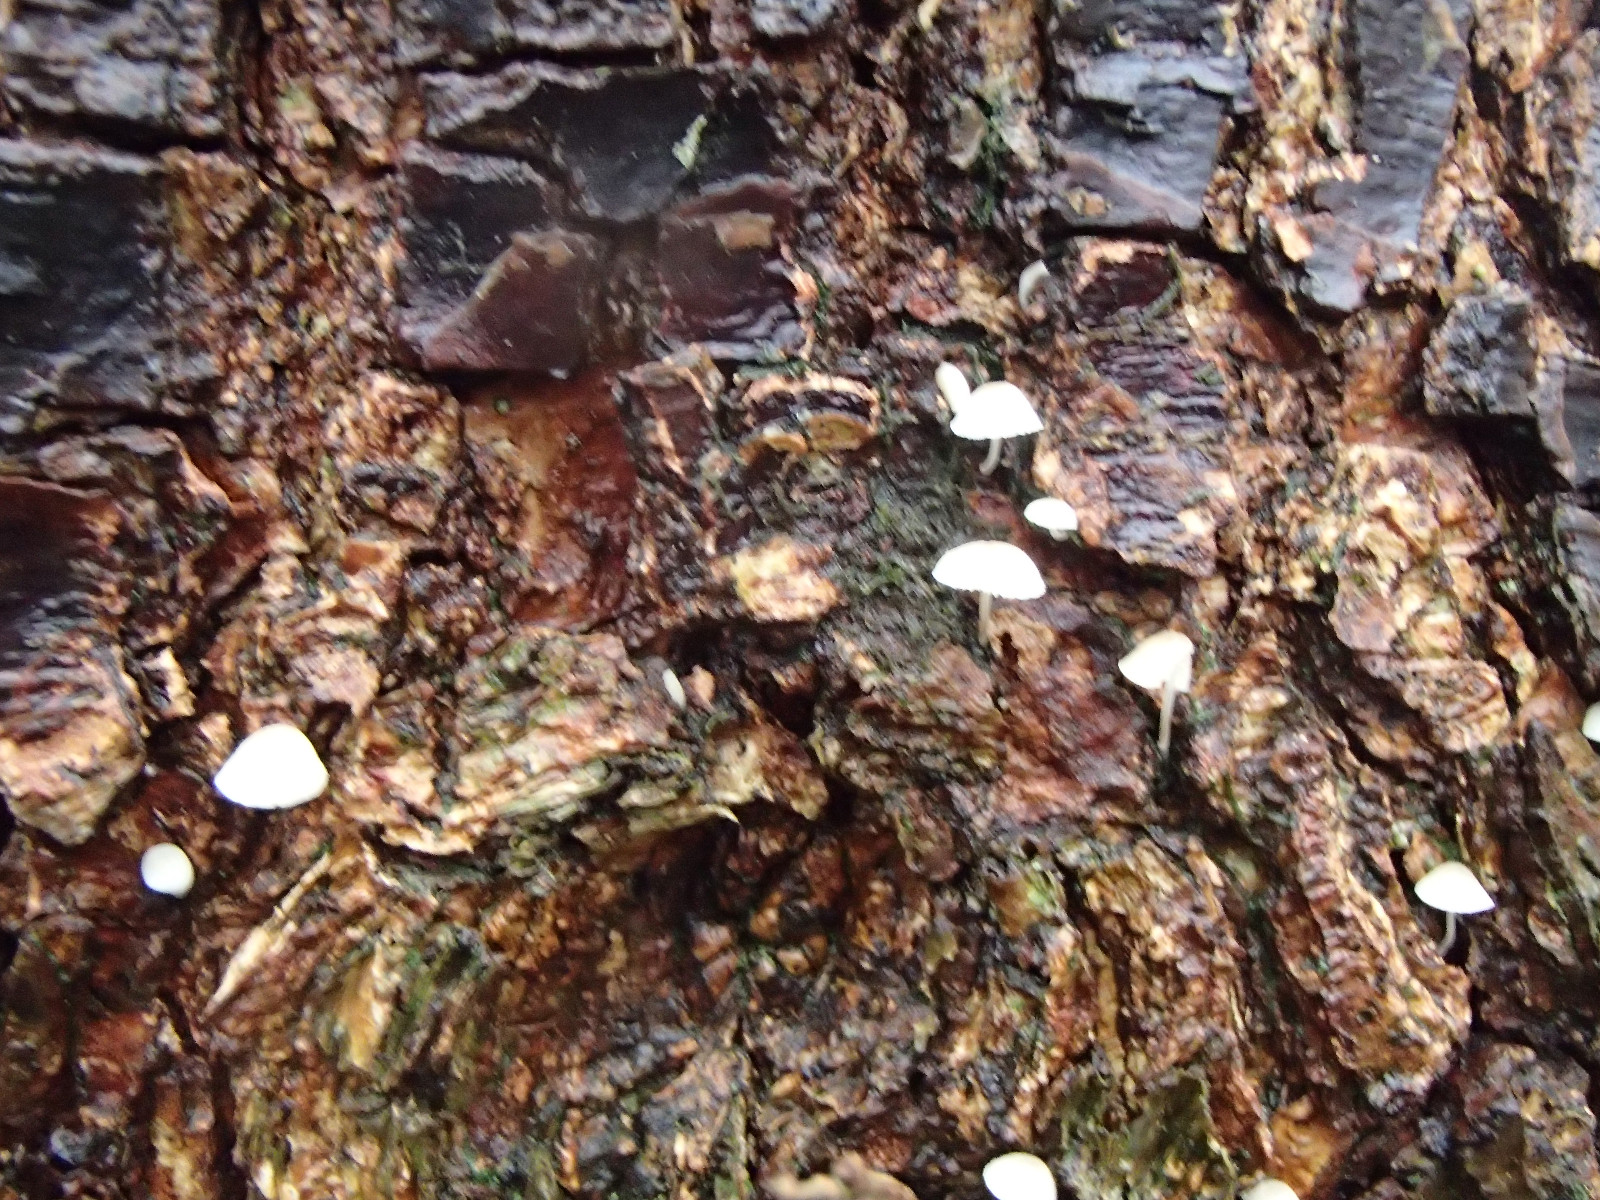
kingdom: Fungi
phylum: Basidiomycota
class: Agaricomycetes
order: Agaricales
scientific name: Agaricales
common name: champignonordenen
